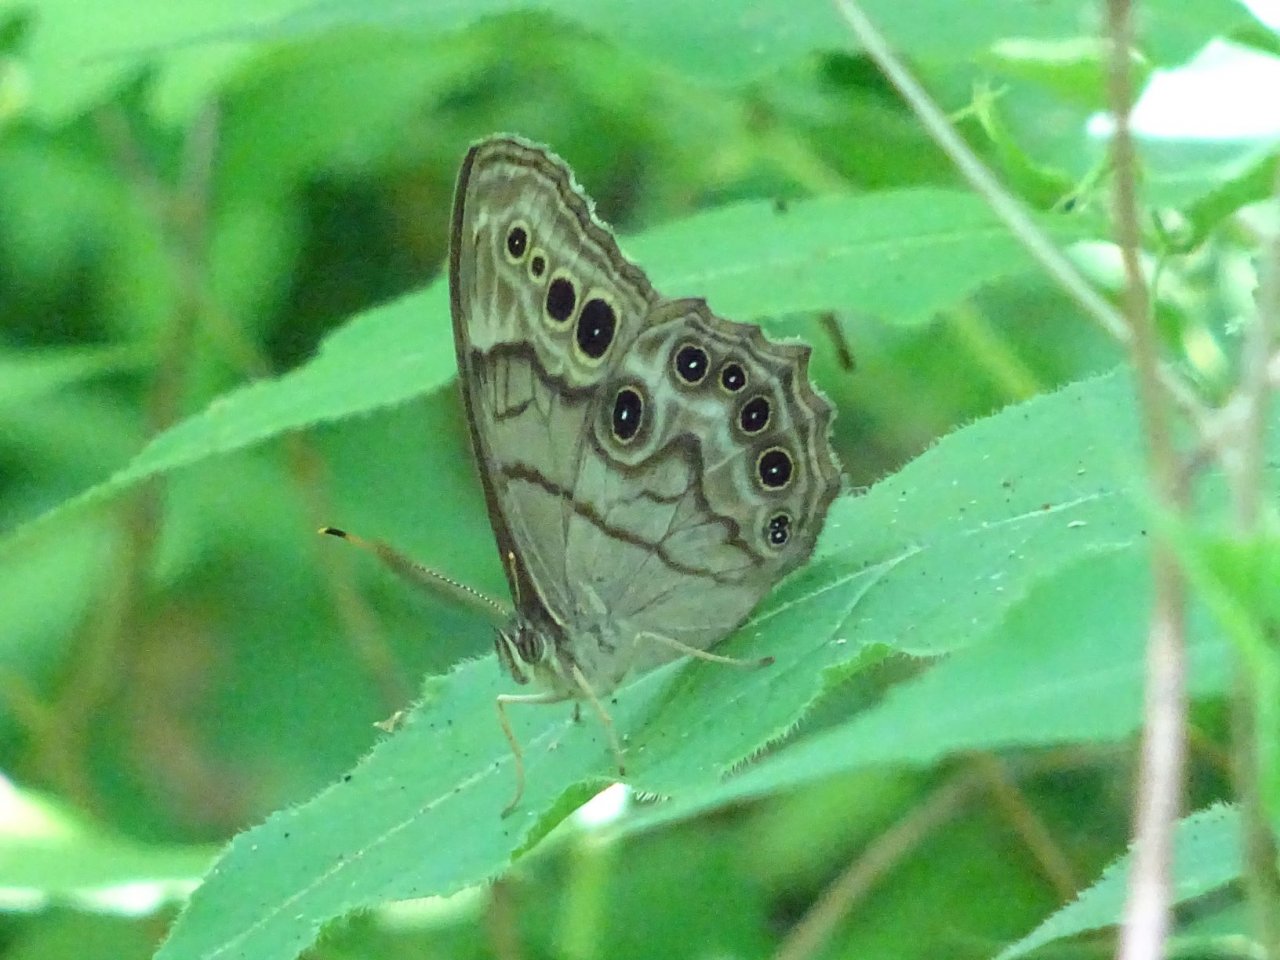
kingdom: Animalia
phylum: Arthropoda
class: Insecta
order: Lepidoptera
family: Nymphalidae
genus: Lethe
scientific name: Lethe anthedon
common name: Northern Pearly-Eye
